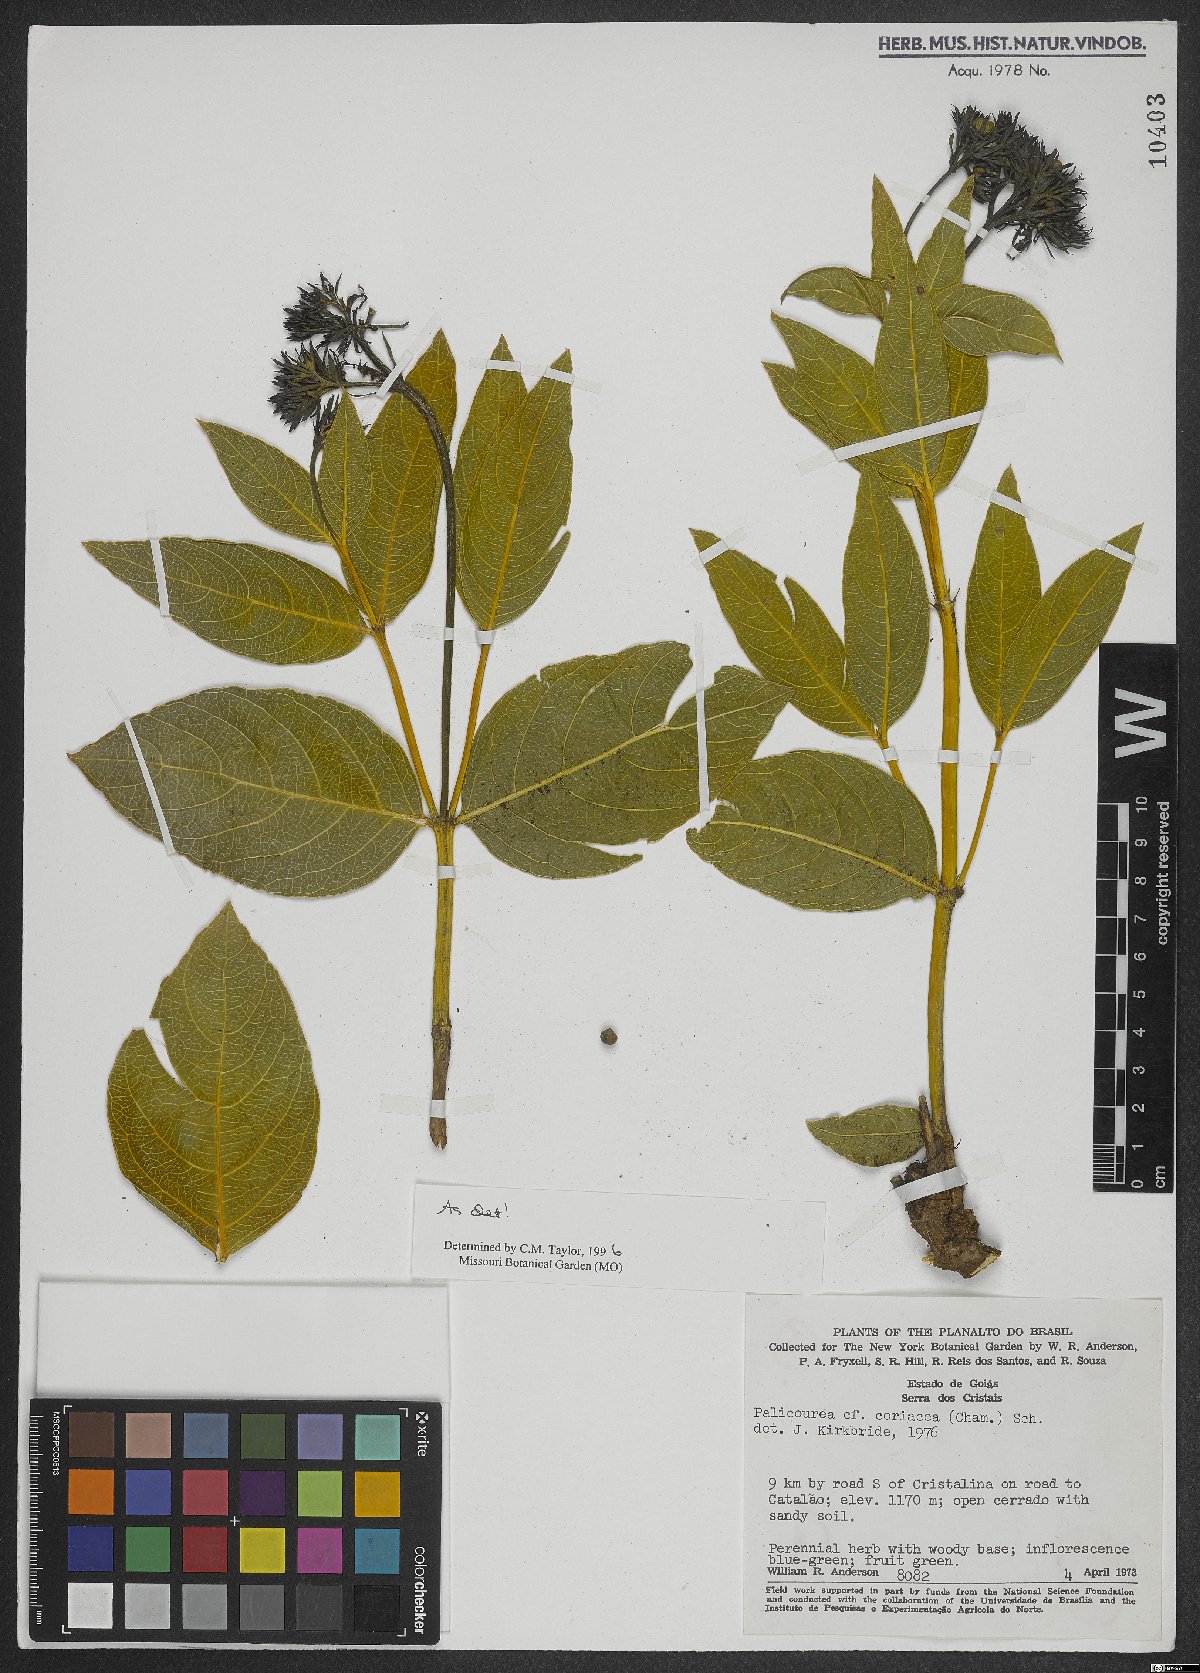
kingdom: Plantae
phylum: Tracheophyta
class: Magnoliopsida
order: Gentianales
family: Rubiaceae
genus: Palicourea
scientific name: Palicourea coriacea
